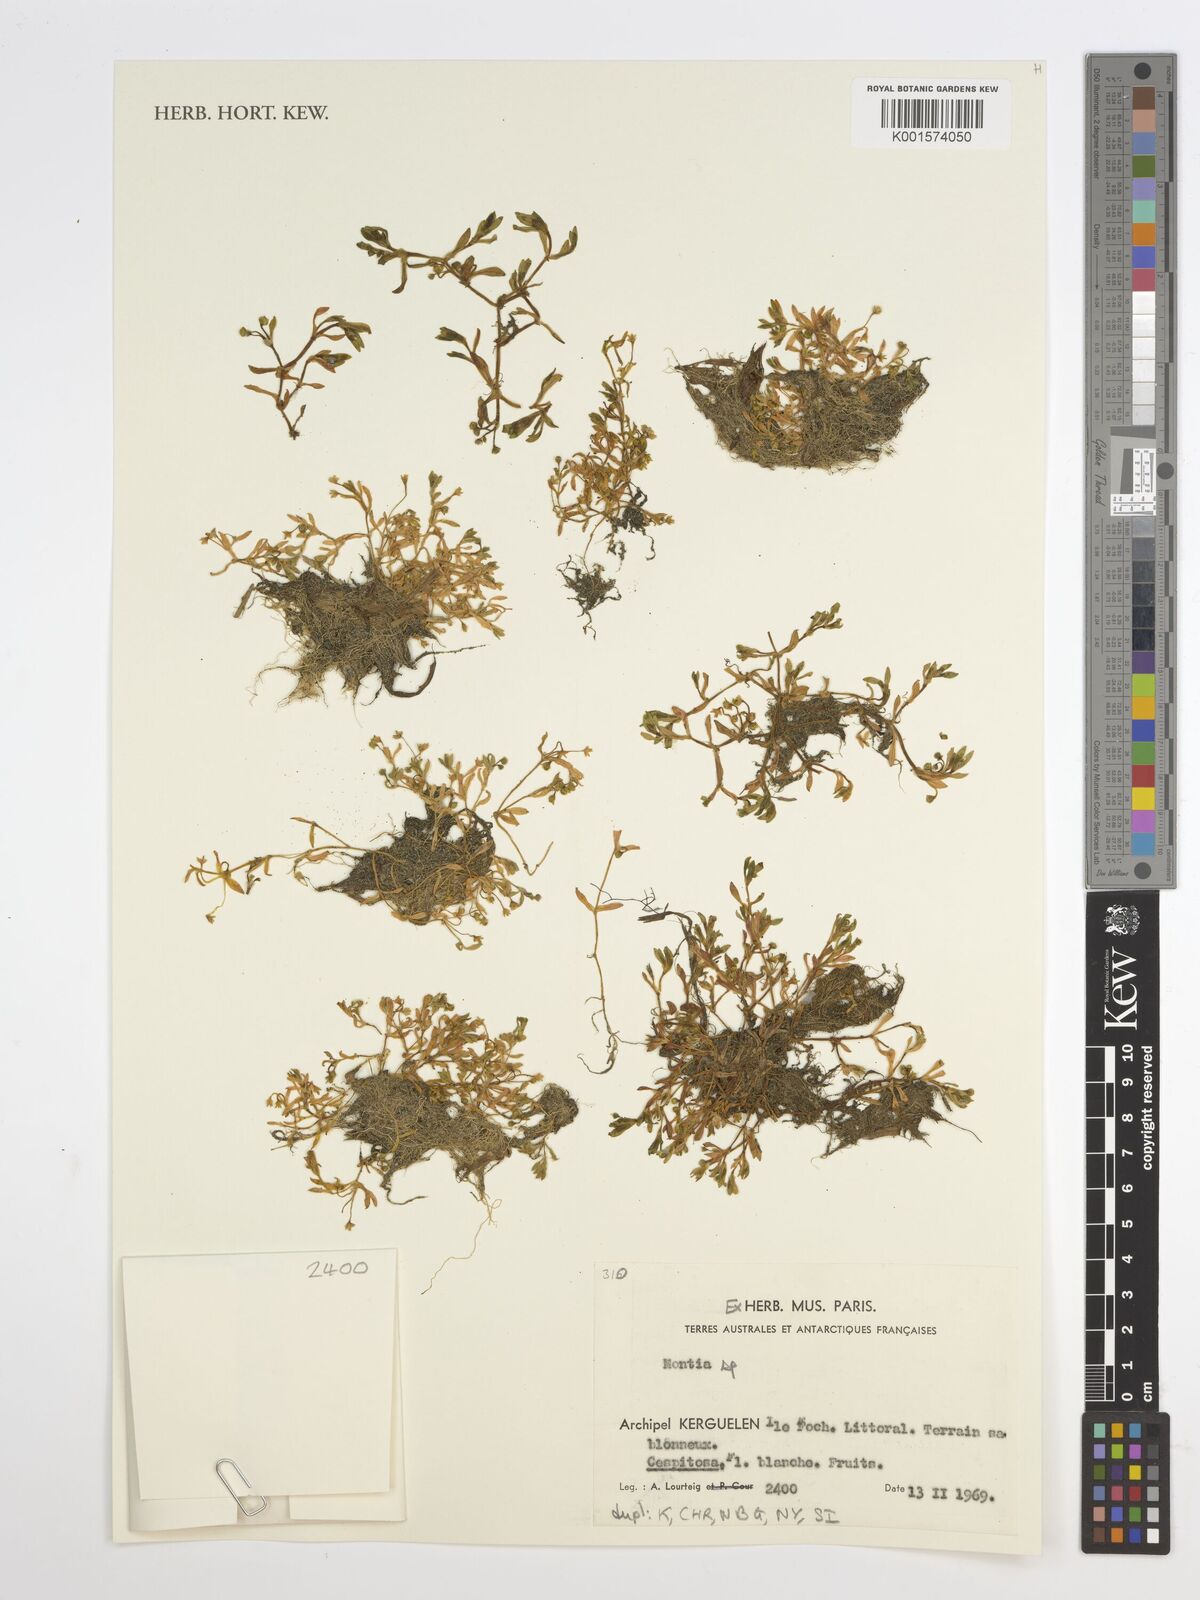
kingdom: Plantae
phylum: Tracheophyta
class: Magnoliopsida
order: Caryophyllales
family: Montiaceae
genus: Montia
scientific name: Montia
